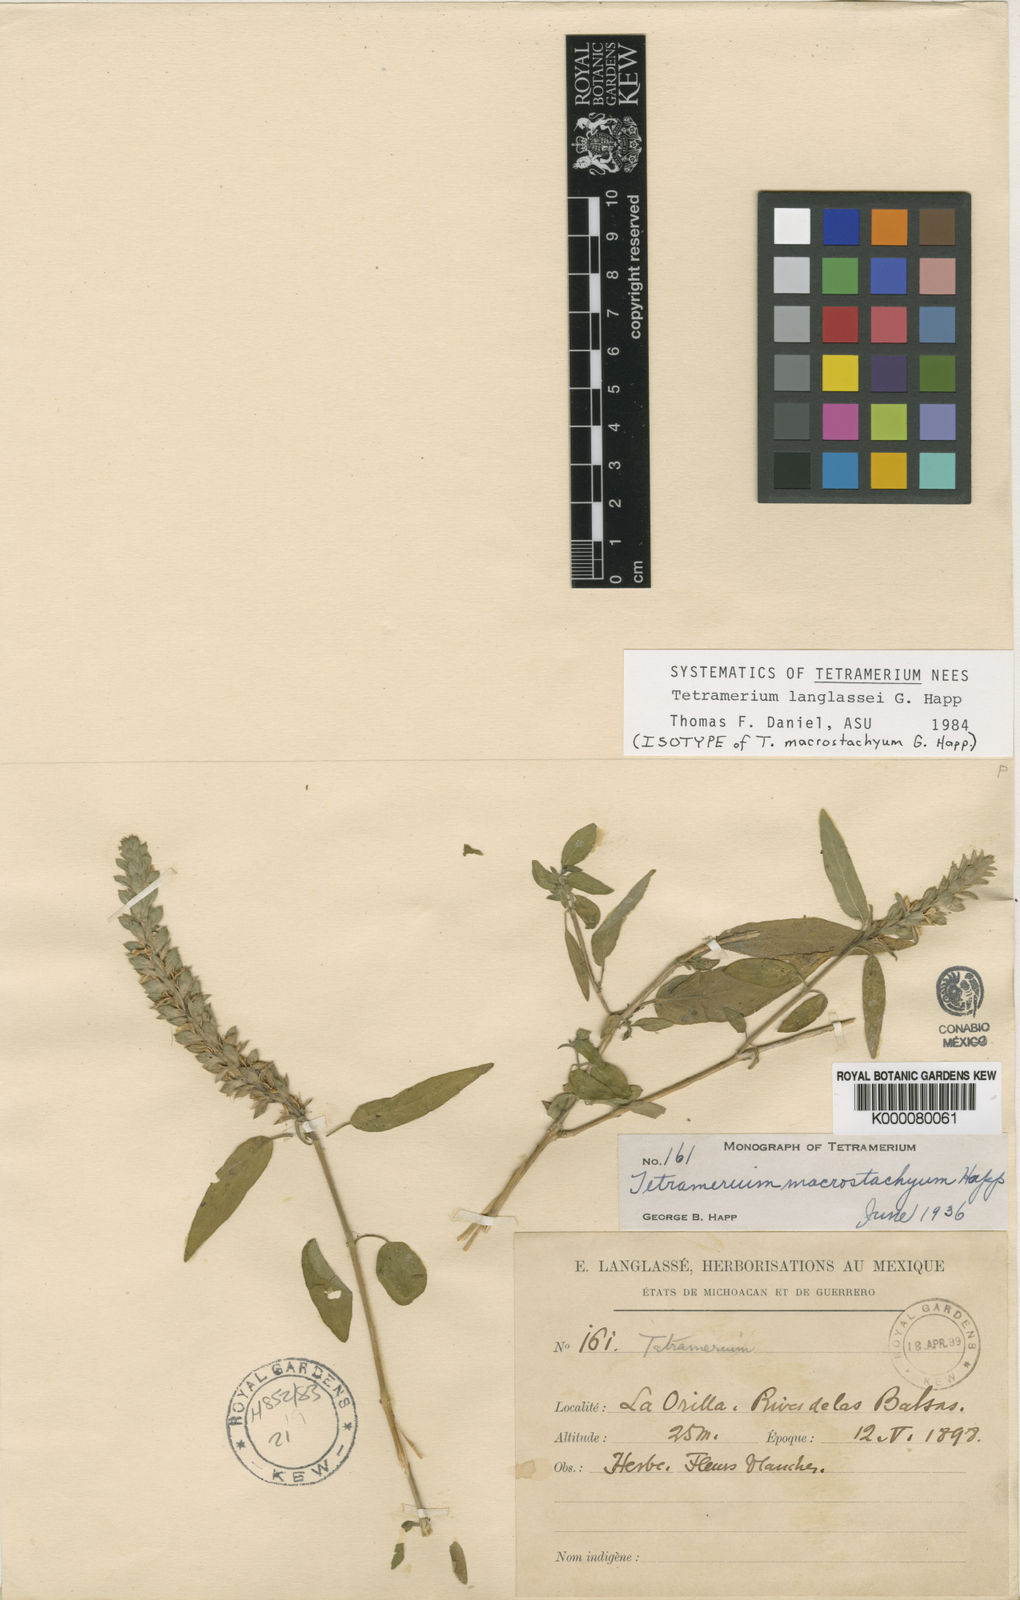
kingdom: Plantae
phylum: Tracheophyta
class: Magnoliopsida
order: Lamiales
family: Acanthaceae
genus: Tetramerium
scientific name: Tetramerium
